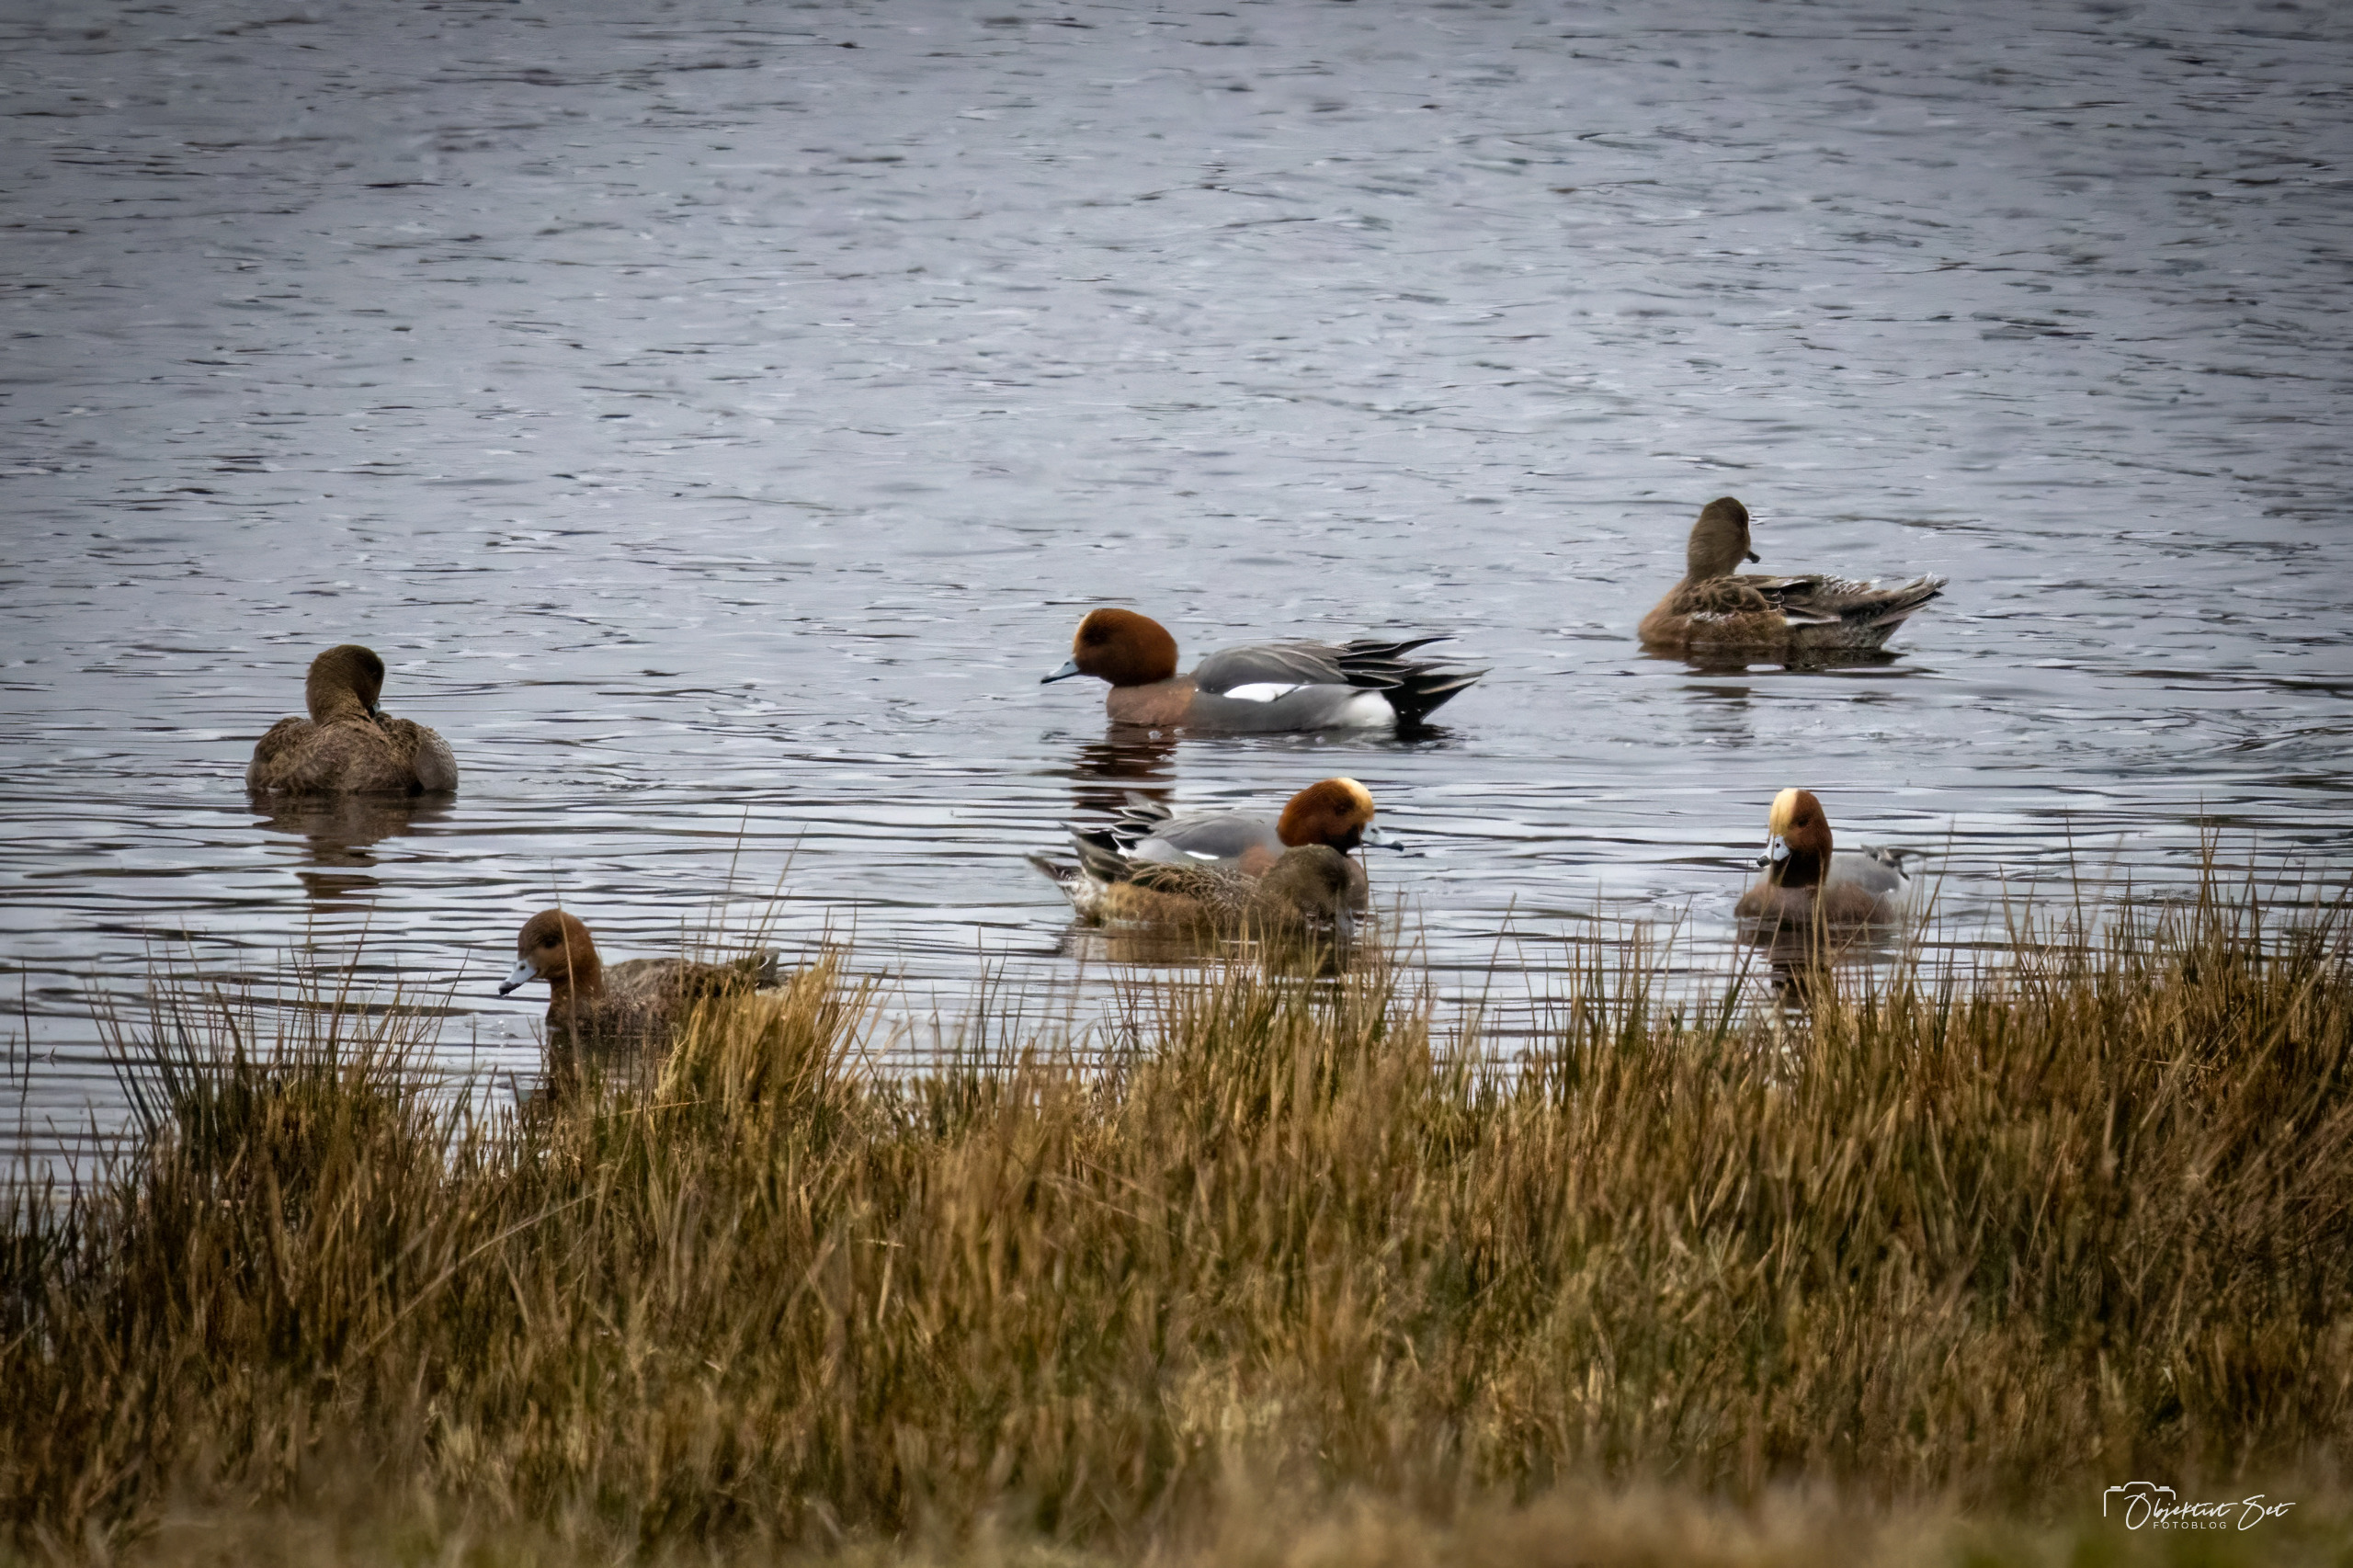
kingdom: Animalia
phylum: Chordata
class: Aves
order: Anseriformes
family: Anatidae
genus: Mareca
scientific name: Mareca penelope
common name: Pibeand
